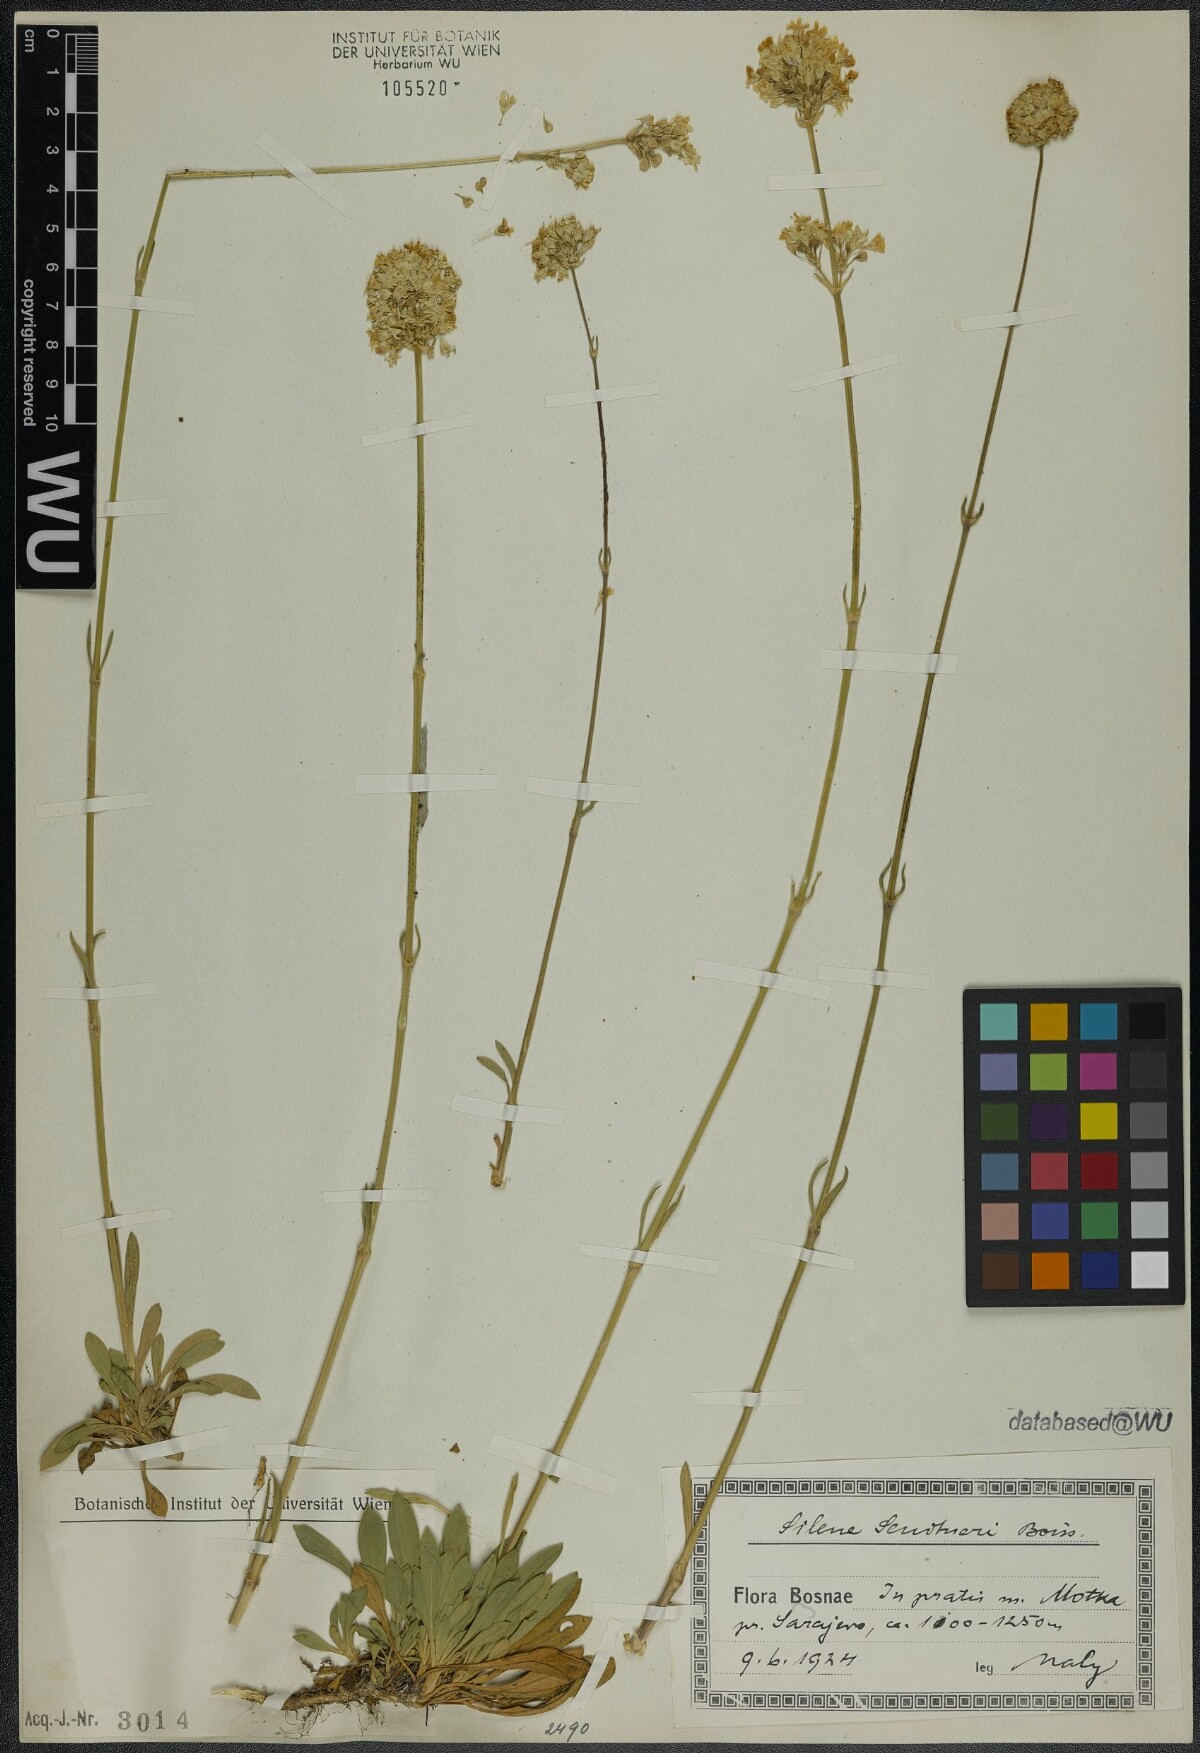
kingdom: Plantae
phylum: Tracheophyta
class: Magnoliopsida
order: Caryophyllales
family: Caryophyllaceae
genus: Silene
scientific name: Silene sendtneri
